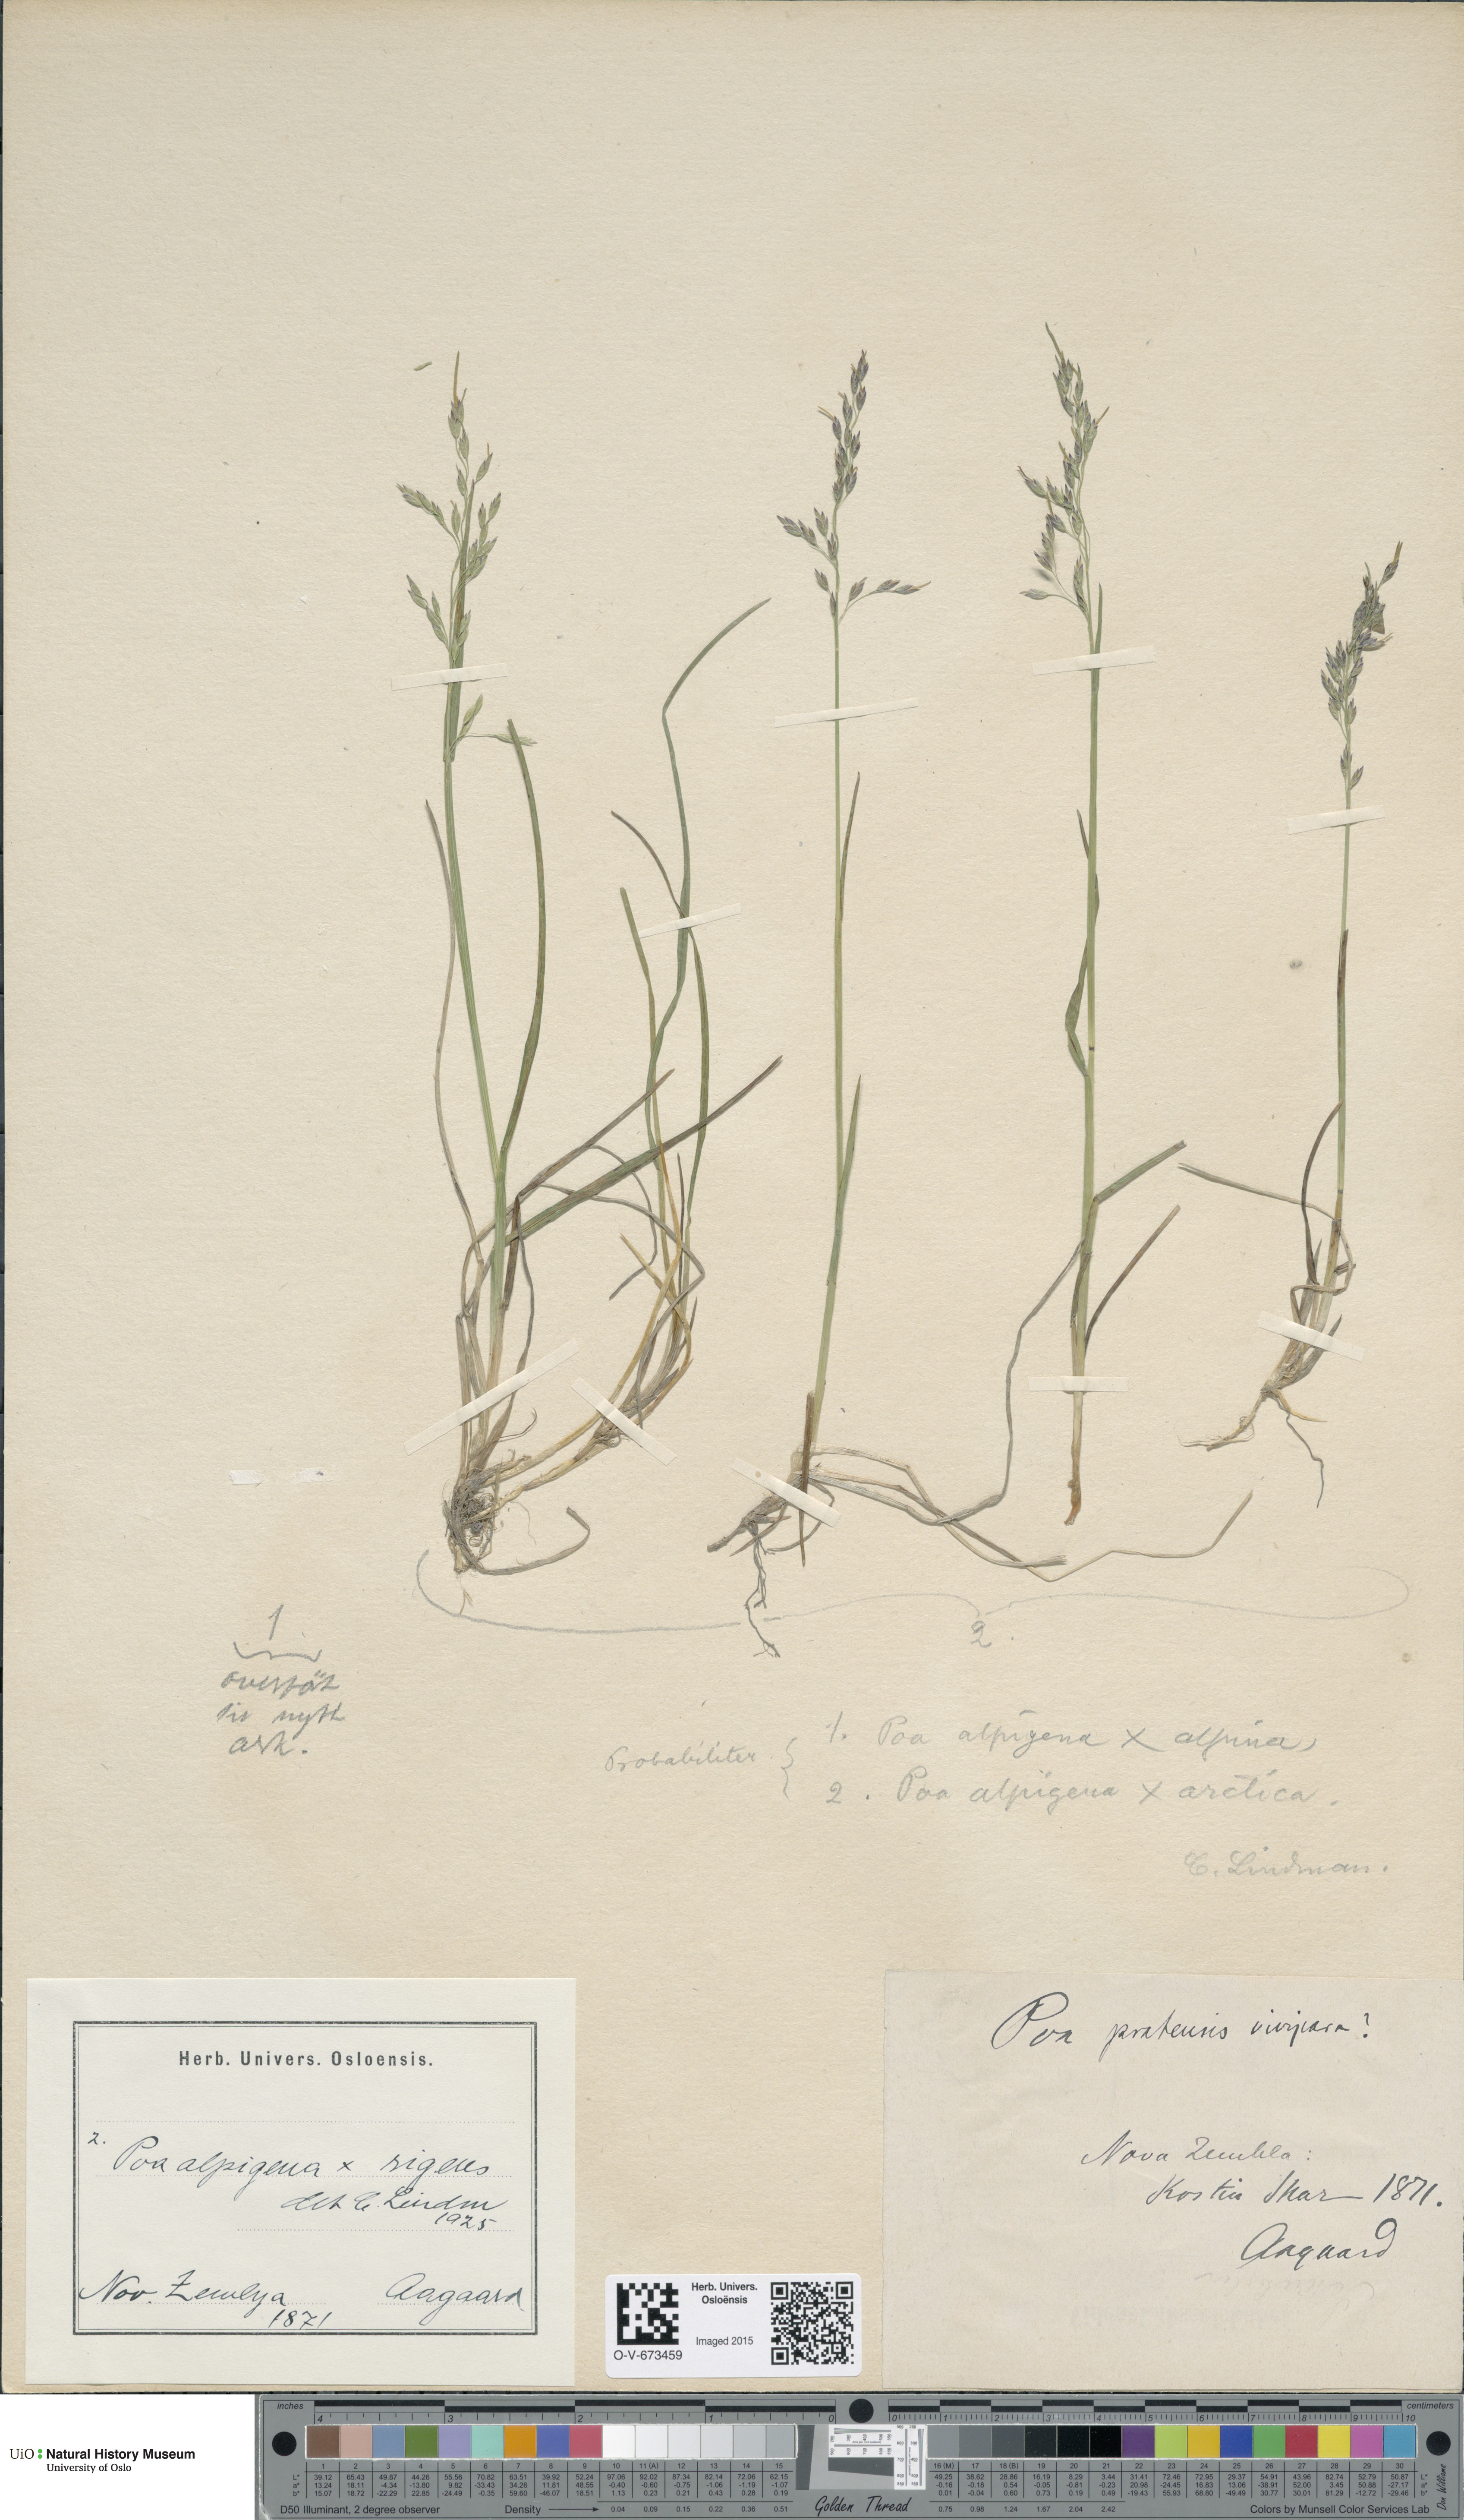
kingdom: Plantae
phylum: Tracheophyta
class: Liliopsida
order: Poales
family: Poaceae
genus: Poa
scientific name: Poa alpigena
